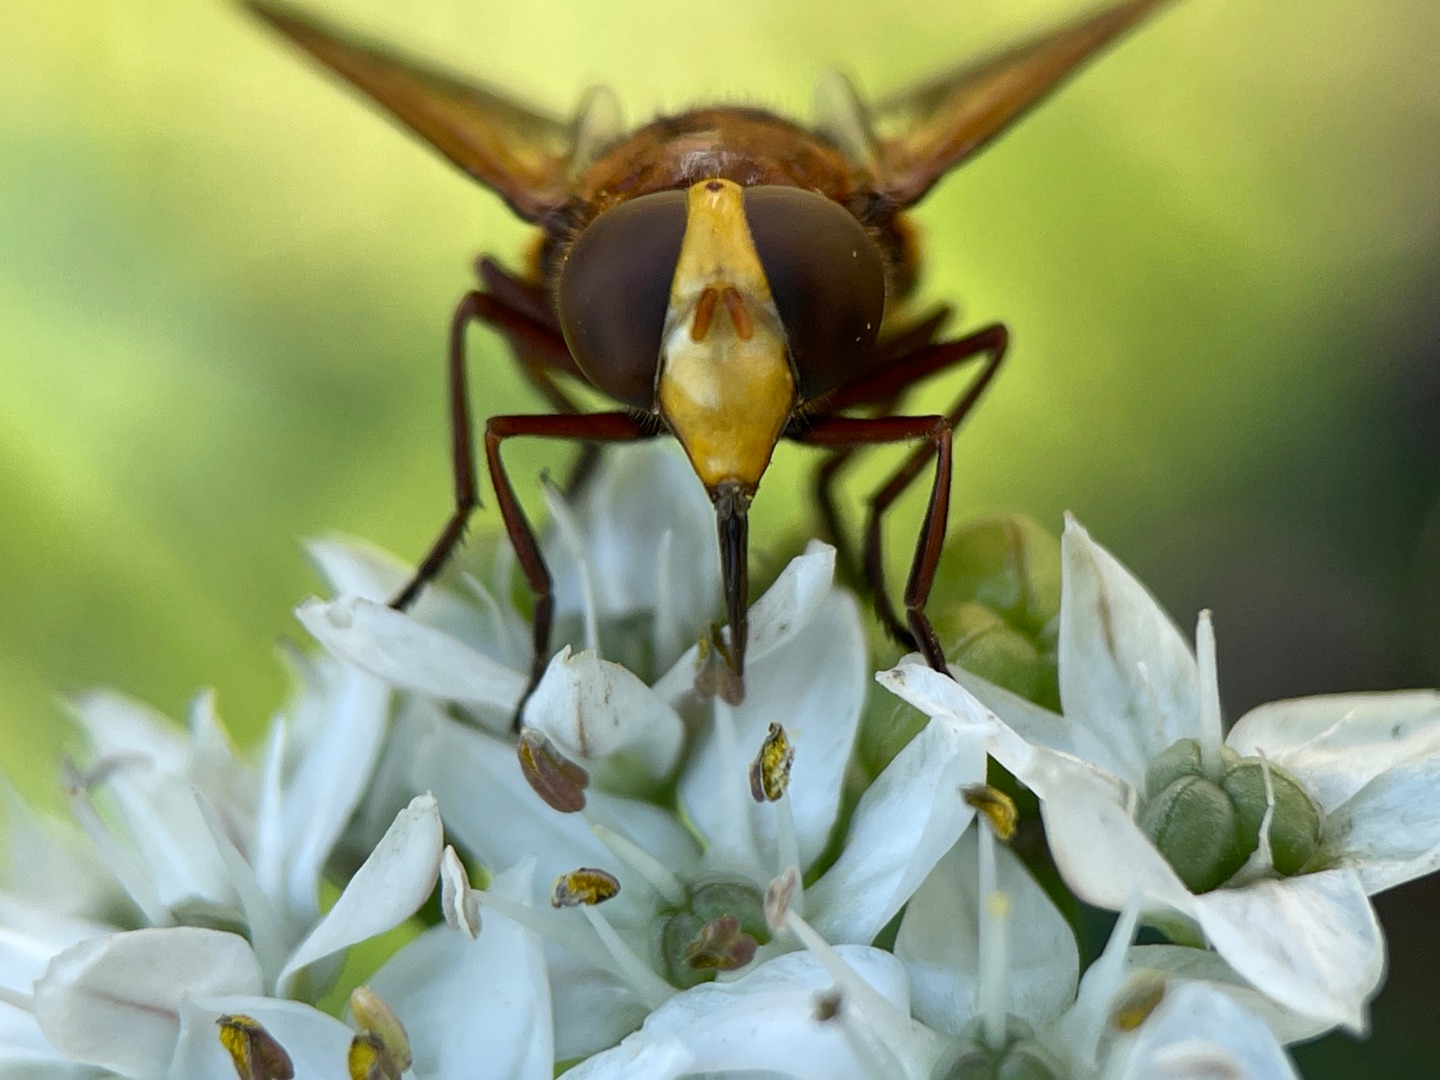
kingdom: Animalia
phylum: Arthropoda
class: Insecta
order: Diptera
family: Syrphidae
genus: Volucella
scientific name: Volucella zonaria
